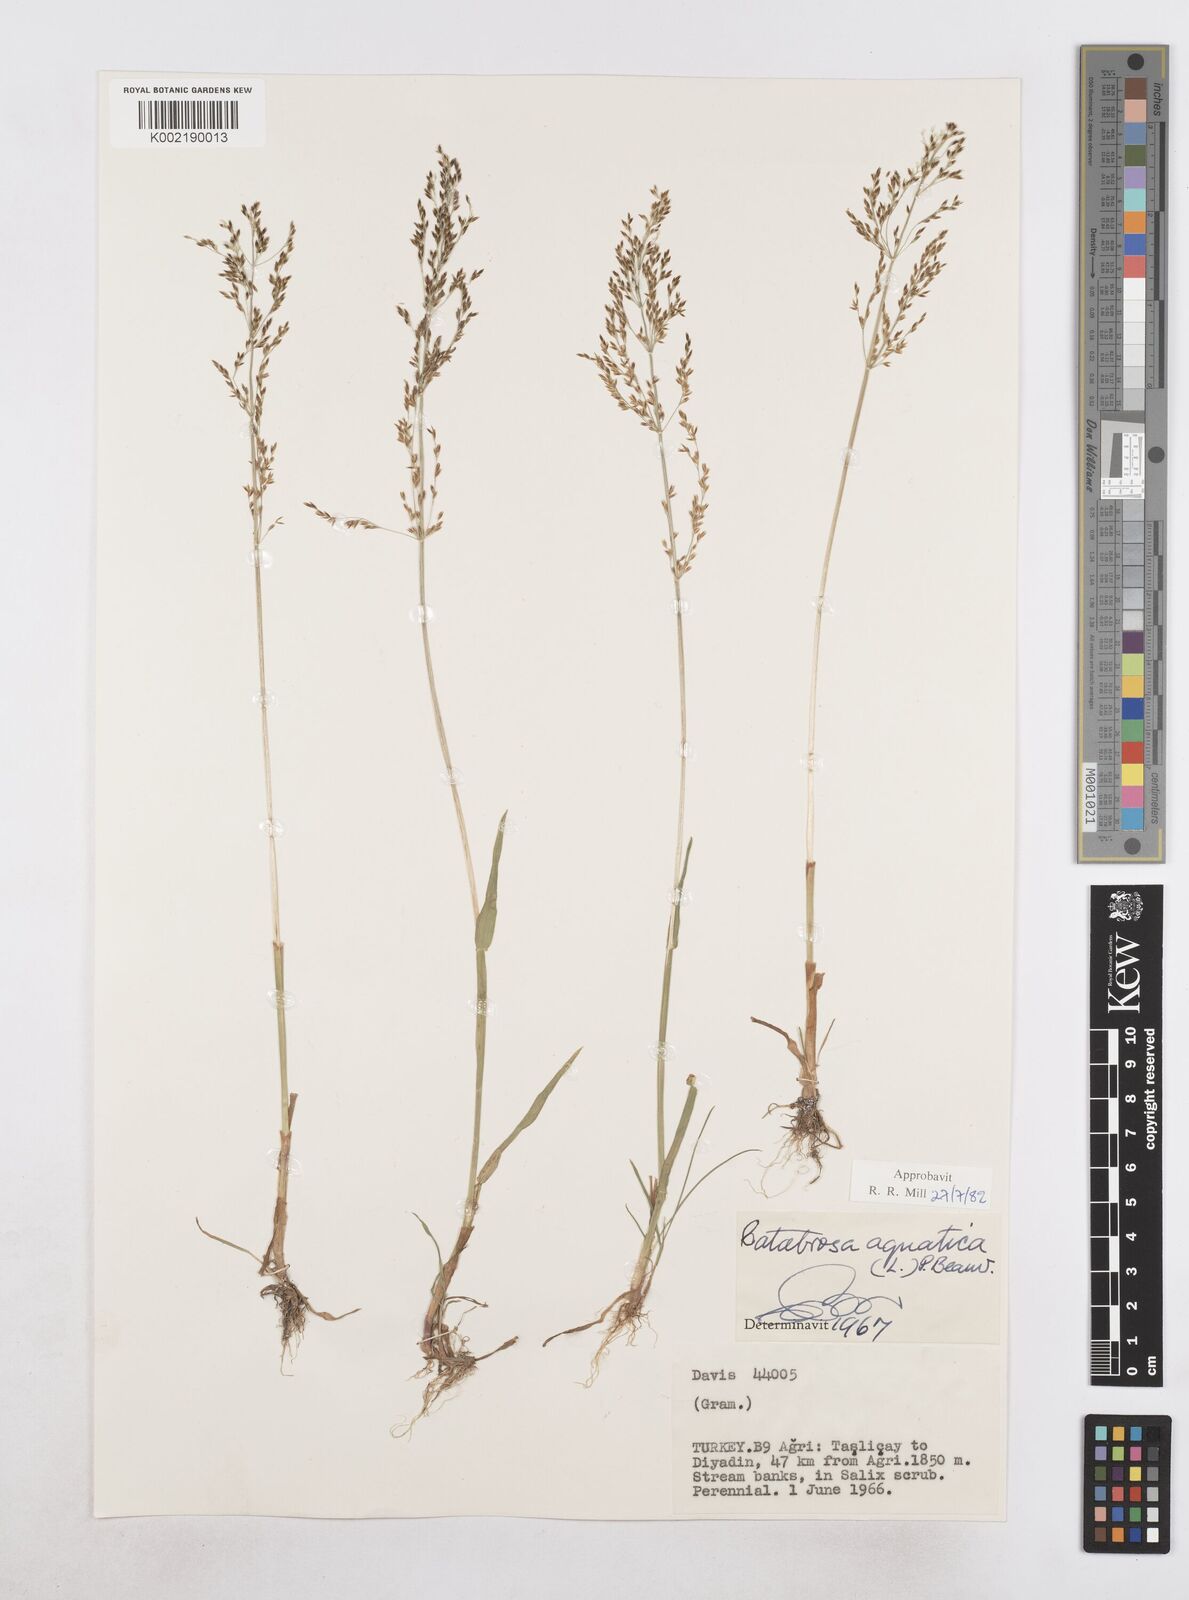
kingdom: Plantae
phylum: Tracheophyta
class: Liliopsida
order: Poales
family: Poaceae
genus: Catabrosa
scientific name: Catabrosa aquatica
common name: Whorl-grass
